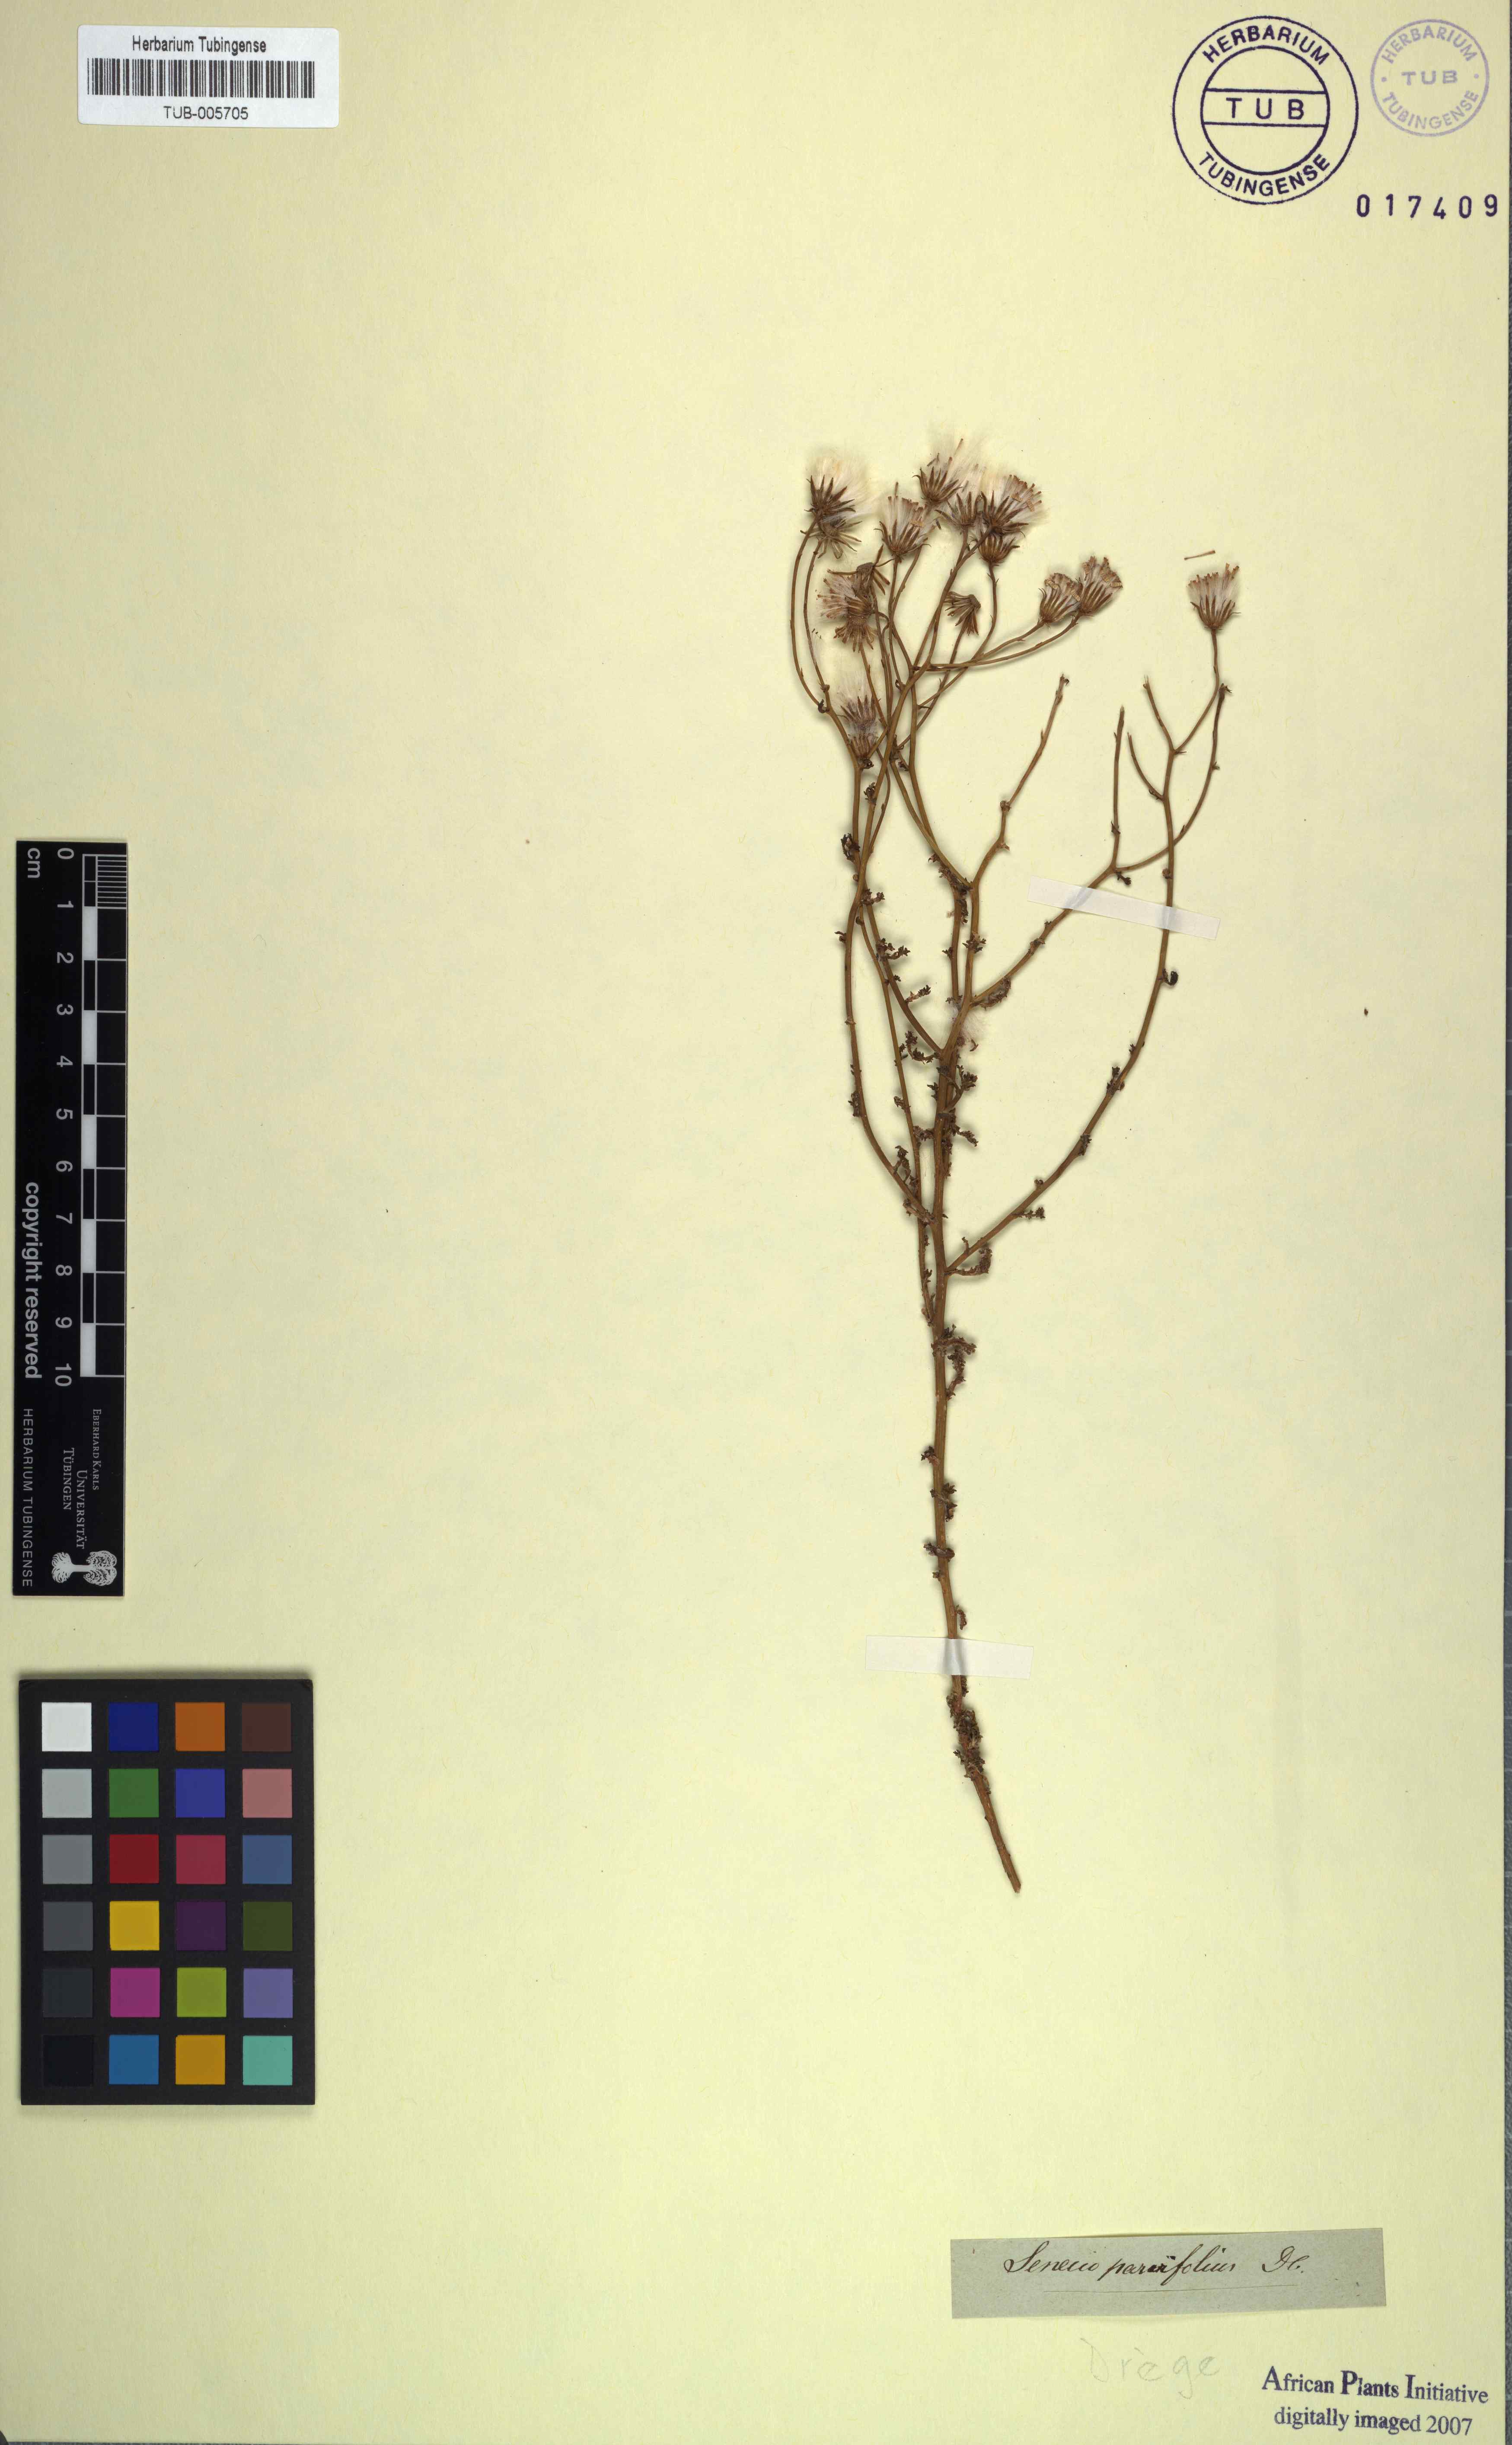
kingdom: Plantae
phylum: Tracheophyta
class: Magnoliopsida
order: Asterales
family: Asteraceae
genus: Senecio
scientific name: Senecio parvifolius
